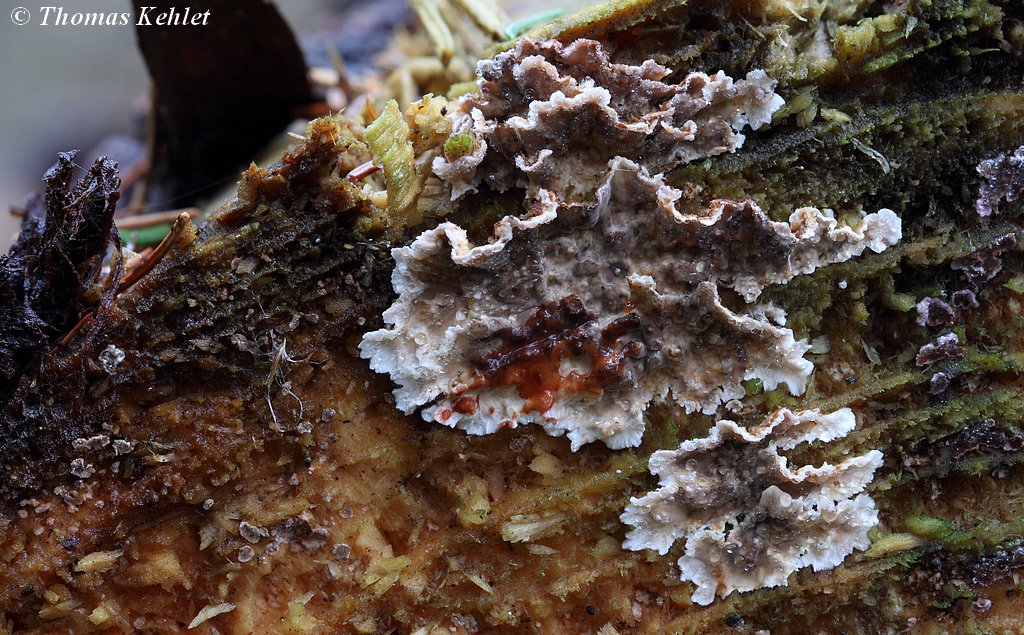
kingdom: Fungi
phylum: Basidiomycota
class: Agaricomycetes
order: Russulales
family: Stereaceae
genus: Stereum
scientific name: Stereum sanguinolentum
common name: blødende lædersvamp
